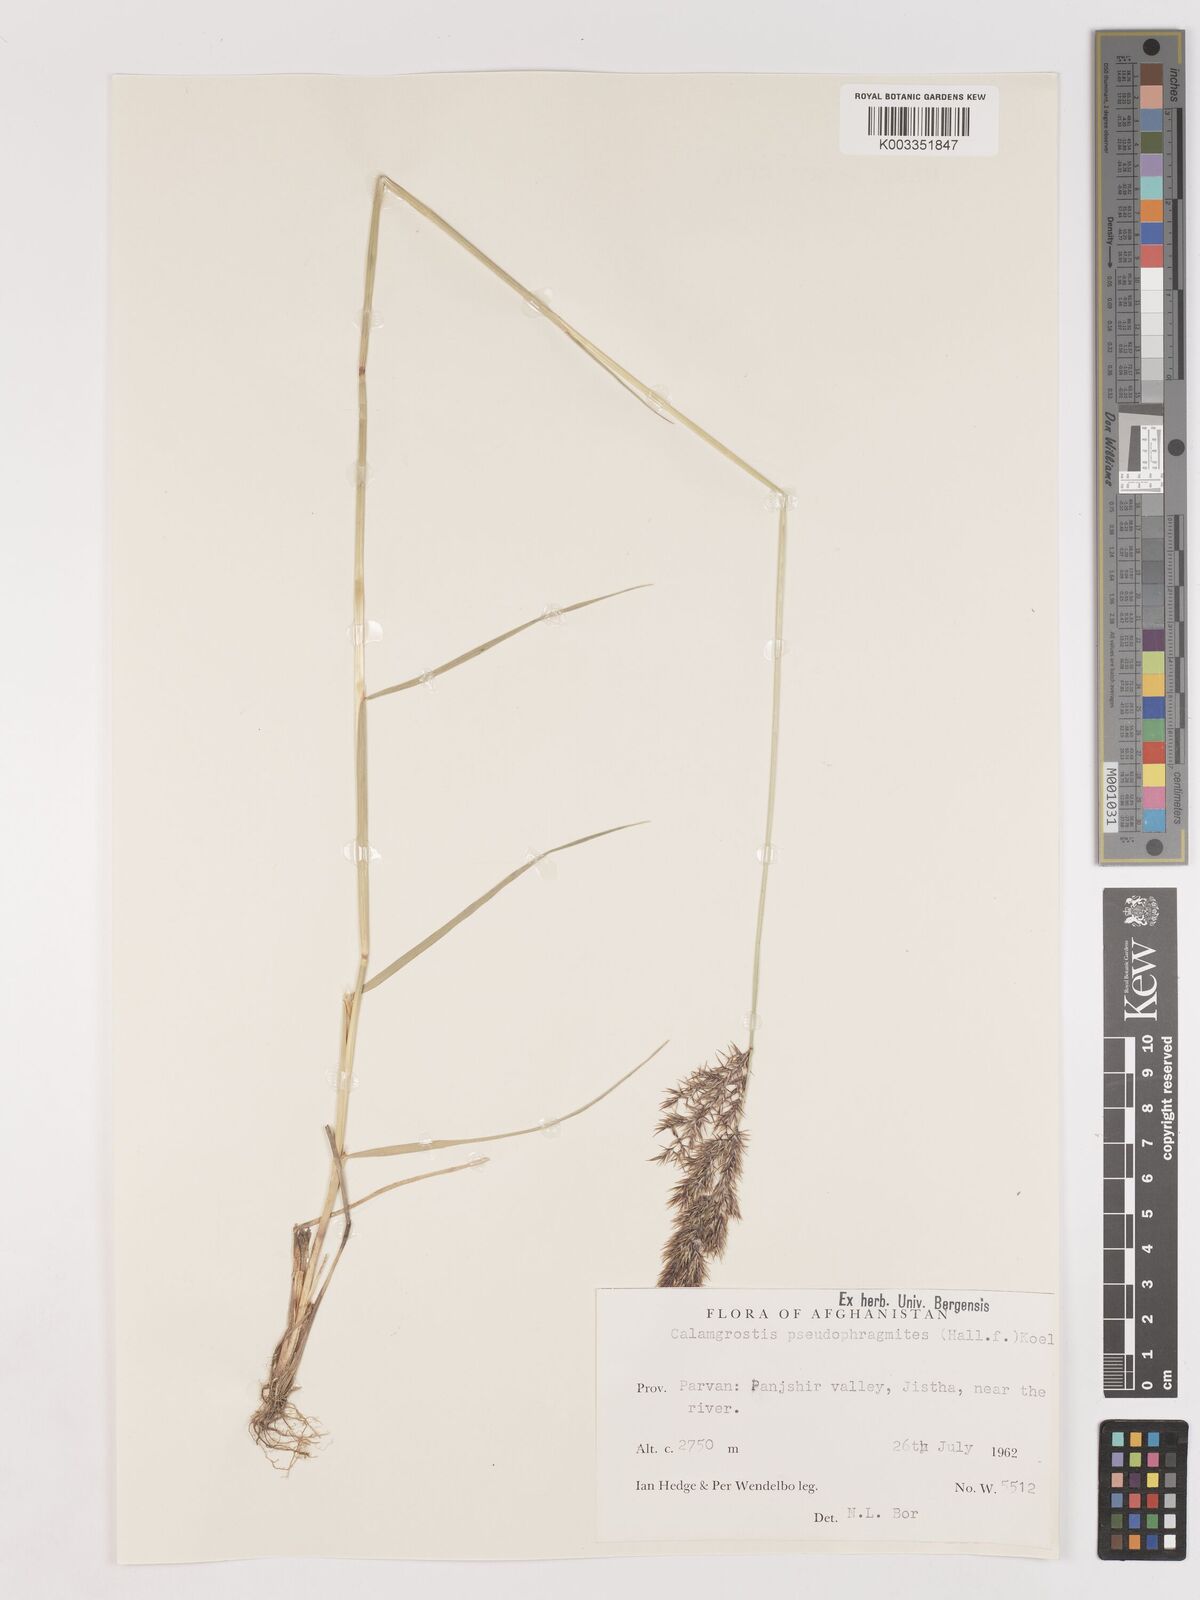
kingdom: Plantae
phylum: Tracheophyta
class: Liliopsida
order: Poales
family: Poaceae
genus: Calamagrostis
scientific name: Calamagrostis purpurea
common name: Scandinavian small-reed
